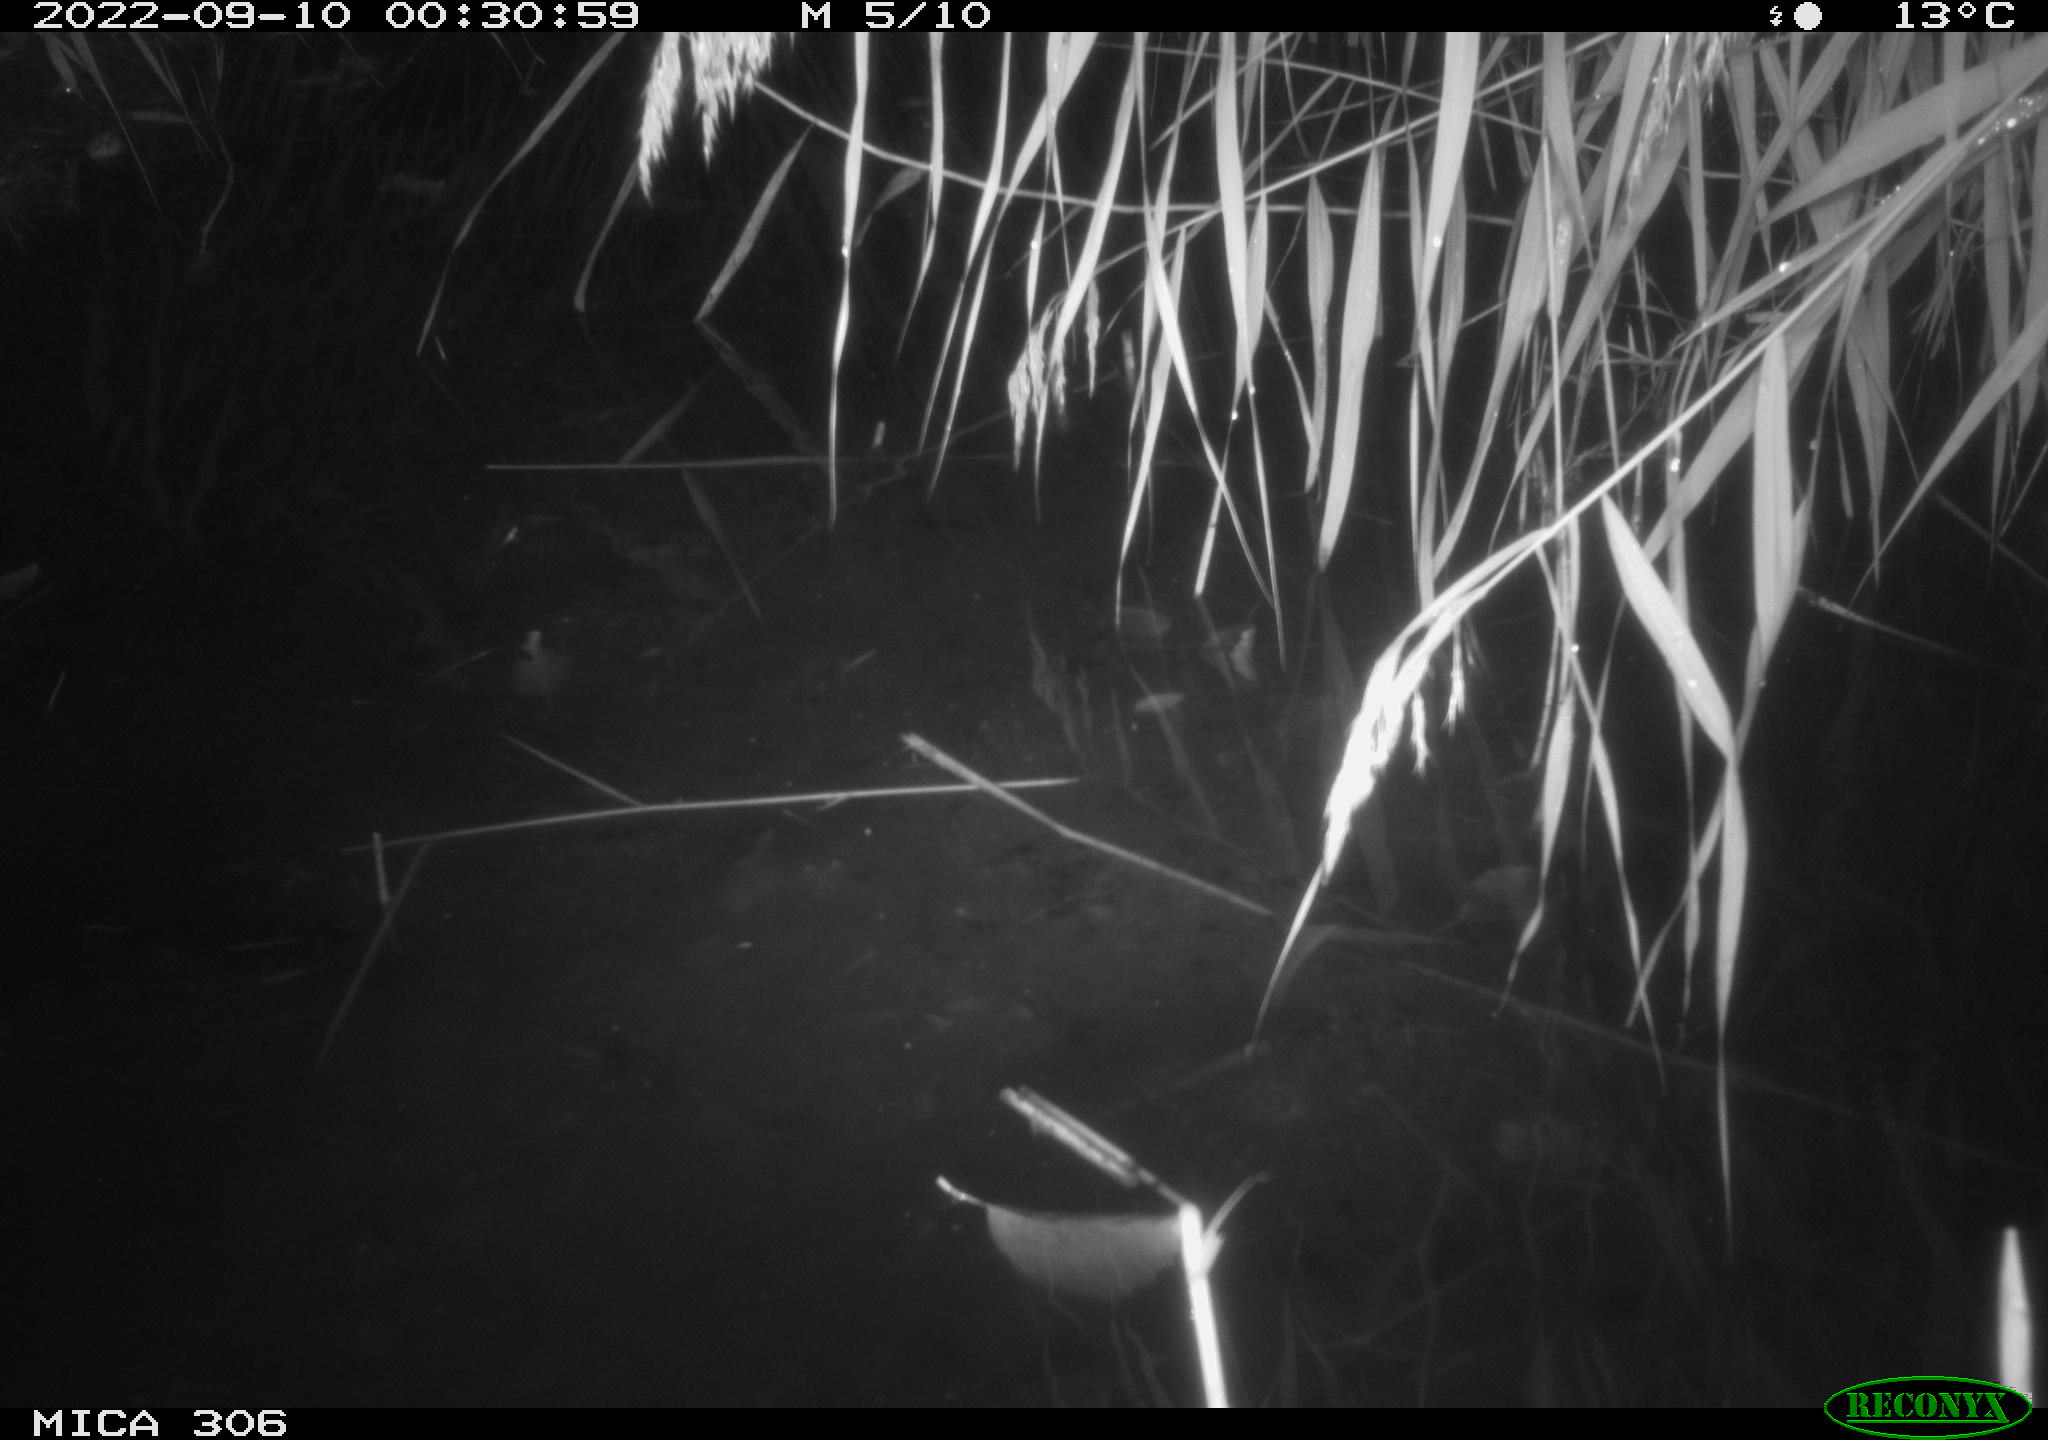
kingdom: Animalia
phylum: Chordata
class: Mammalia
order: Rodentia
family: Muridae
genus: Rattus
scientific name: Rattus norvegicus
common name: Brown rat
